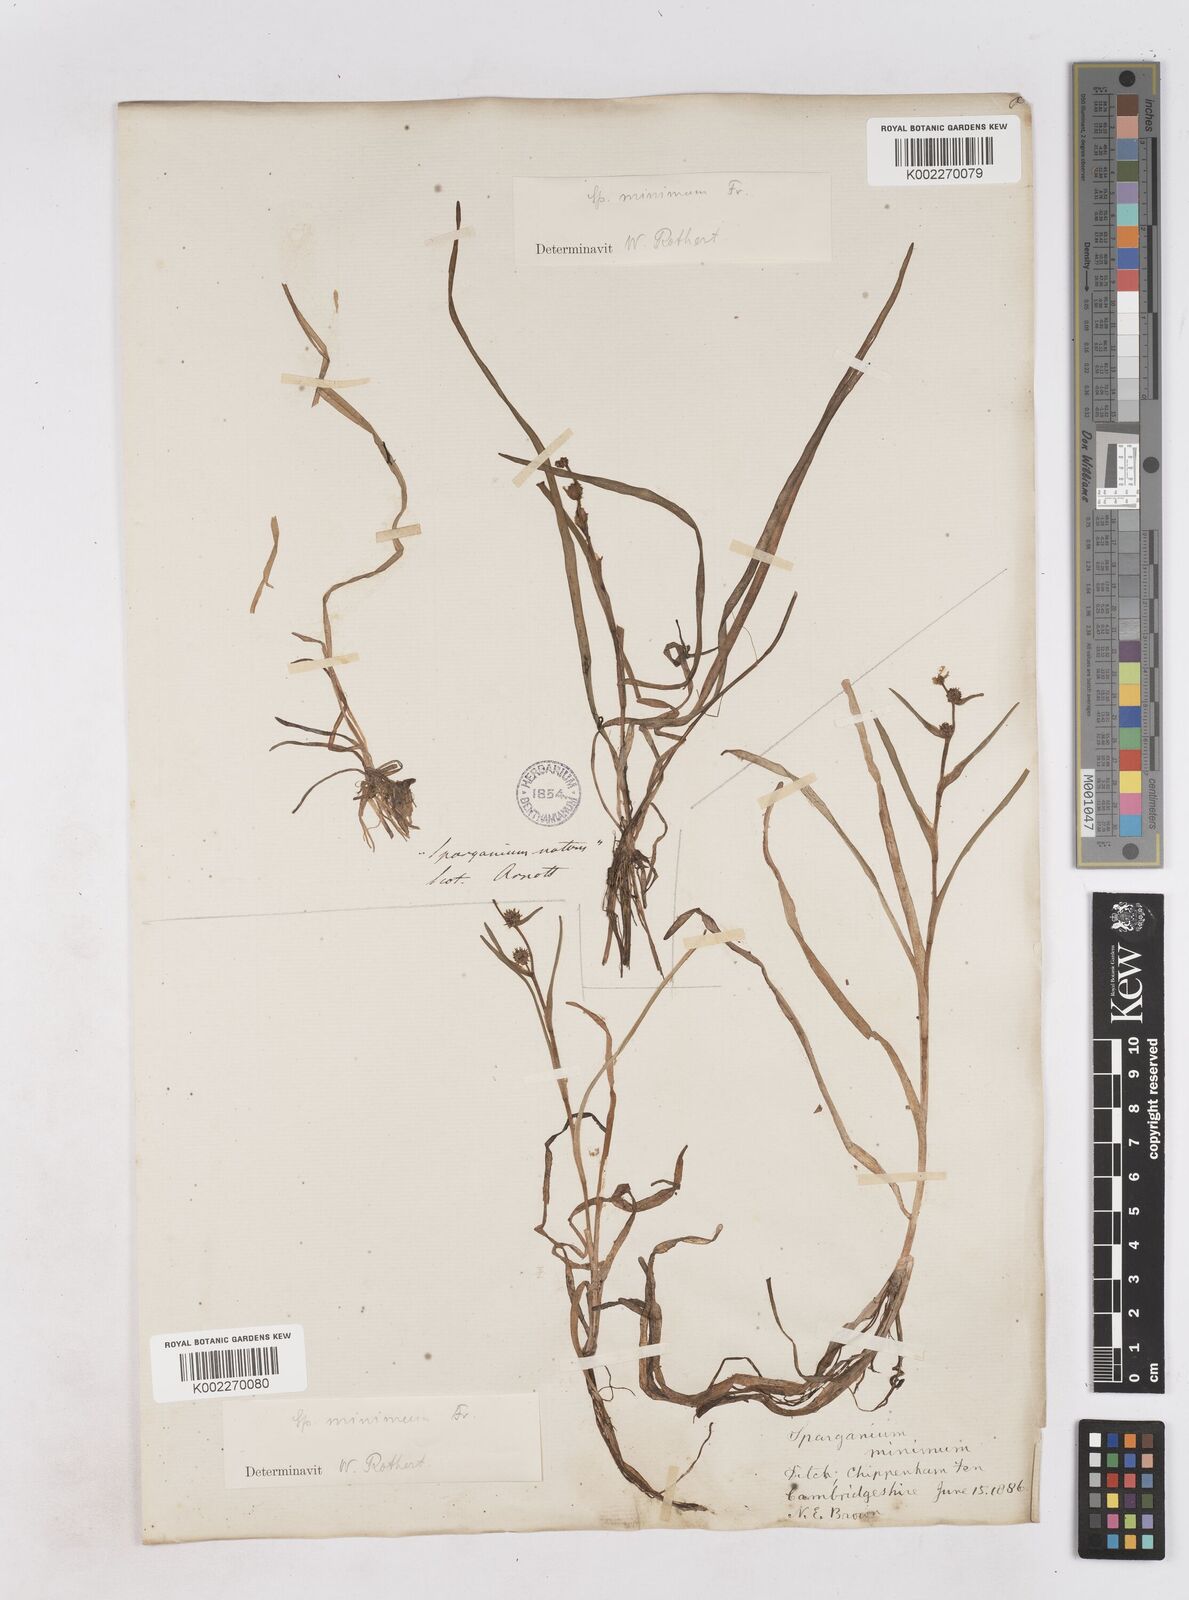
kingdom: Plantae
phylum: Tracheophyta
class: Liliopsida
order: Poales
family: Typhaceae
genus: Sparganium
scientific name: Sparganium natans
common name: Least bur-reed
